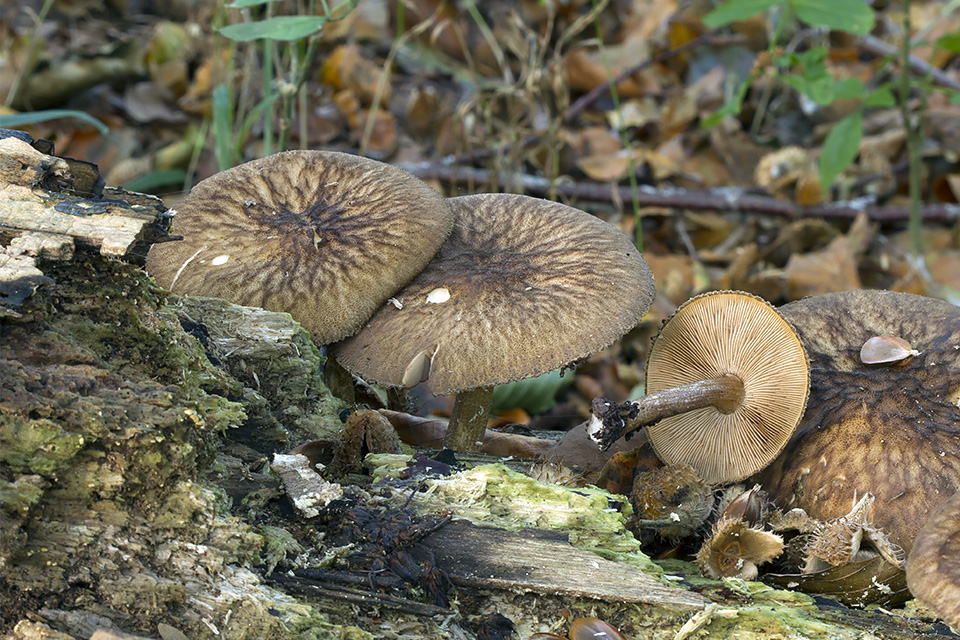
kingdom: Fungi
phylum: Basidiomycota
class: Agaricomycetes
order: Agaricales
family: Pluteaceae
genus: Pluteus
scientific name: Pluteus umbrosus
